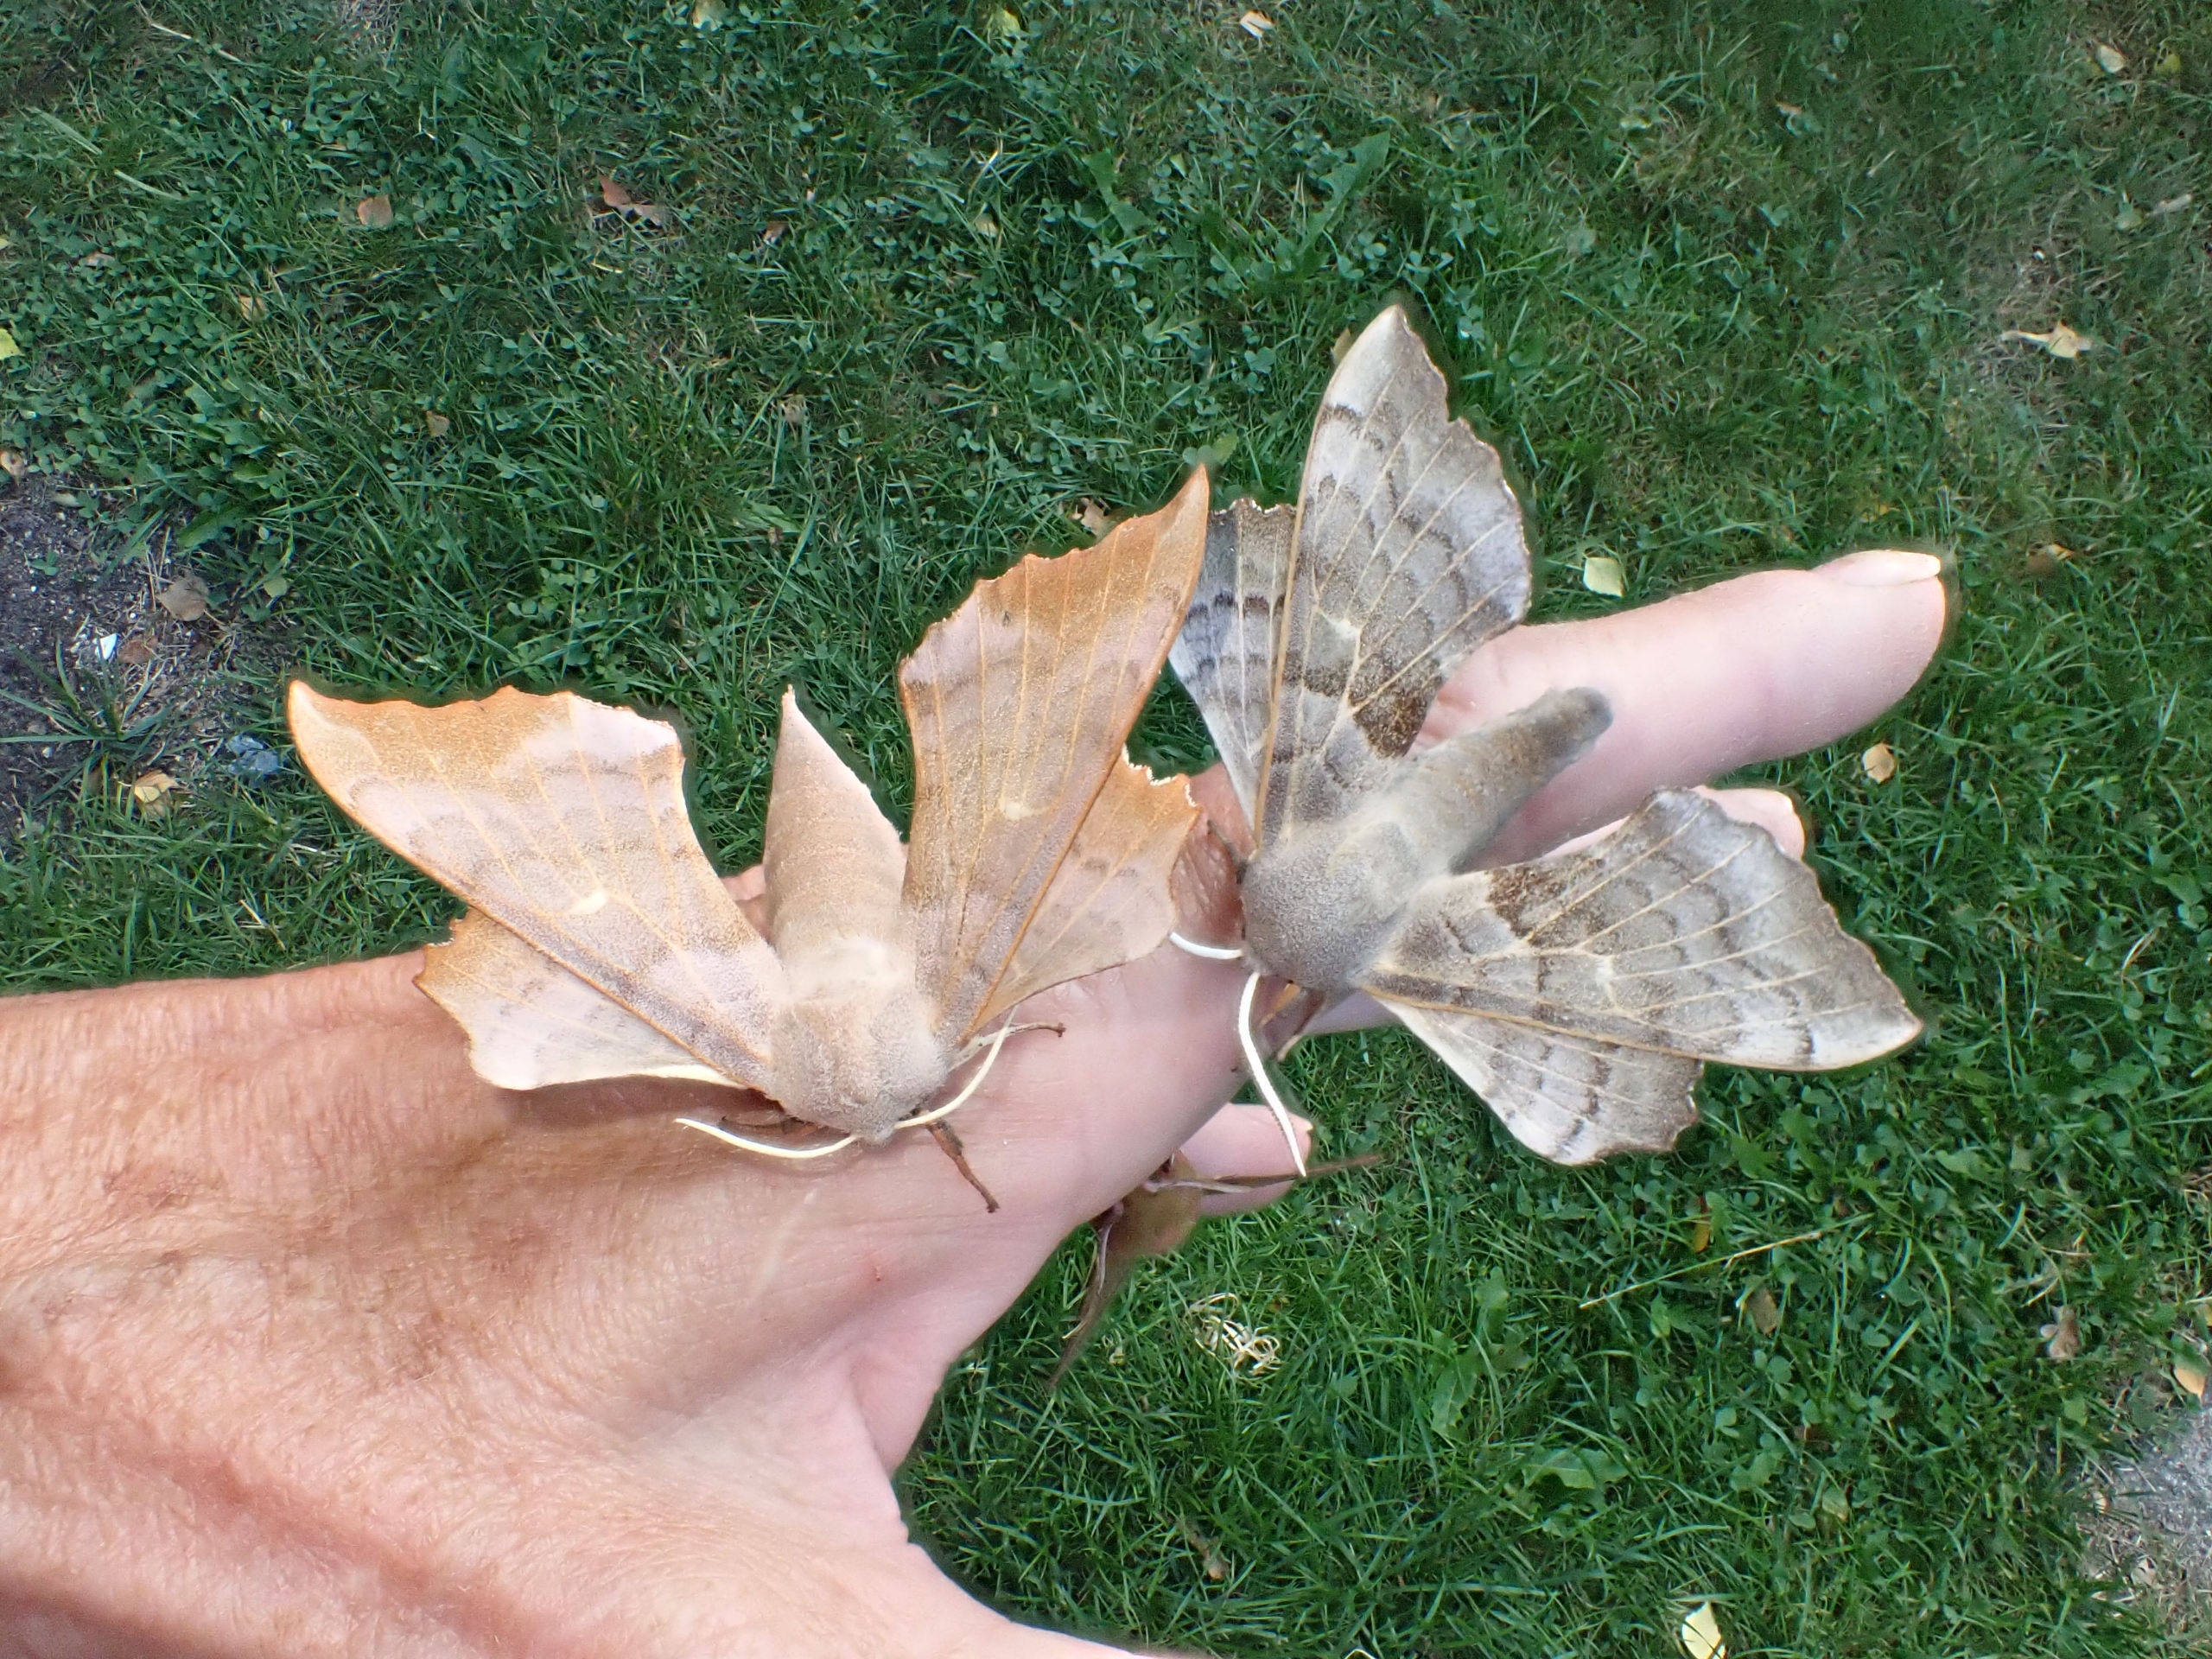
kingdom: Animalia
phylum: Arthropoda
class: Insecta
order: Lepidoptera
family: Sphingidae
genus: Laothoe
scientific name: Laothoe populi
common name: Poppelsværmer
